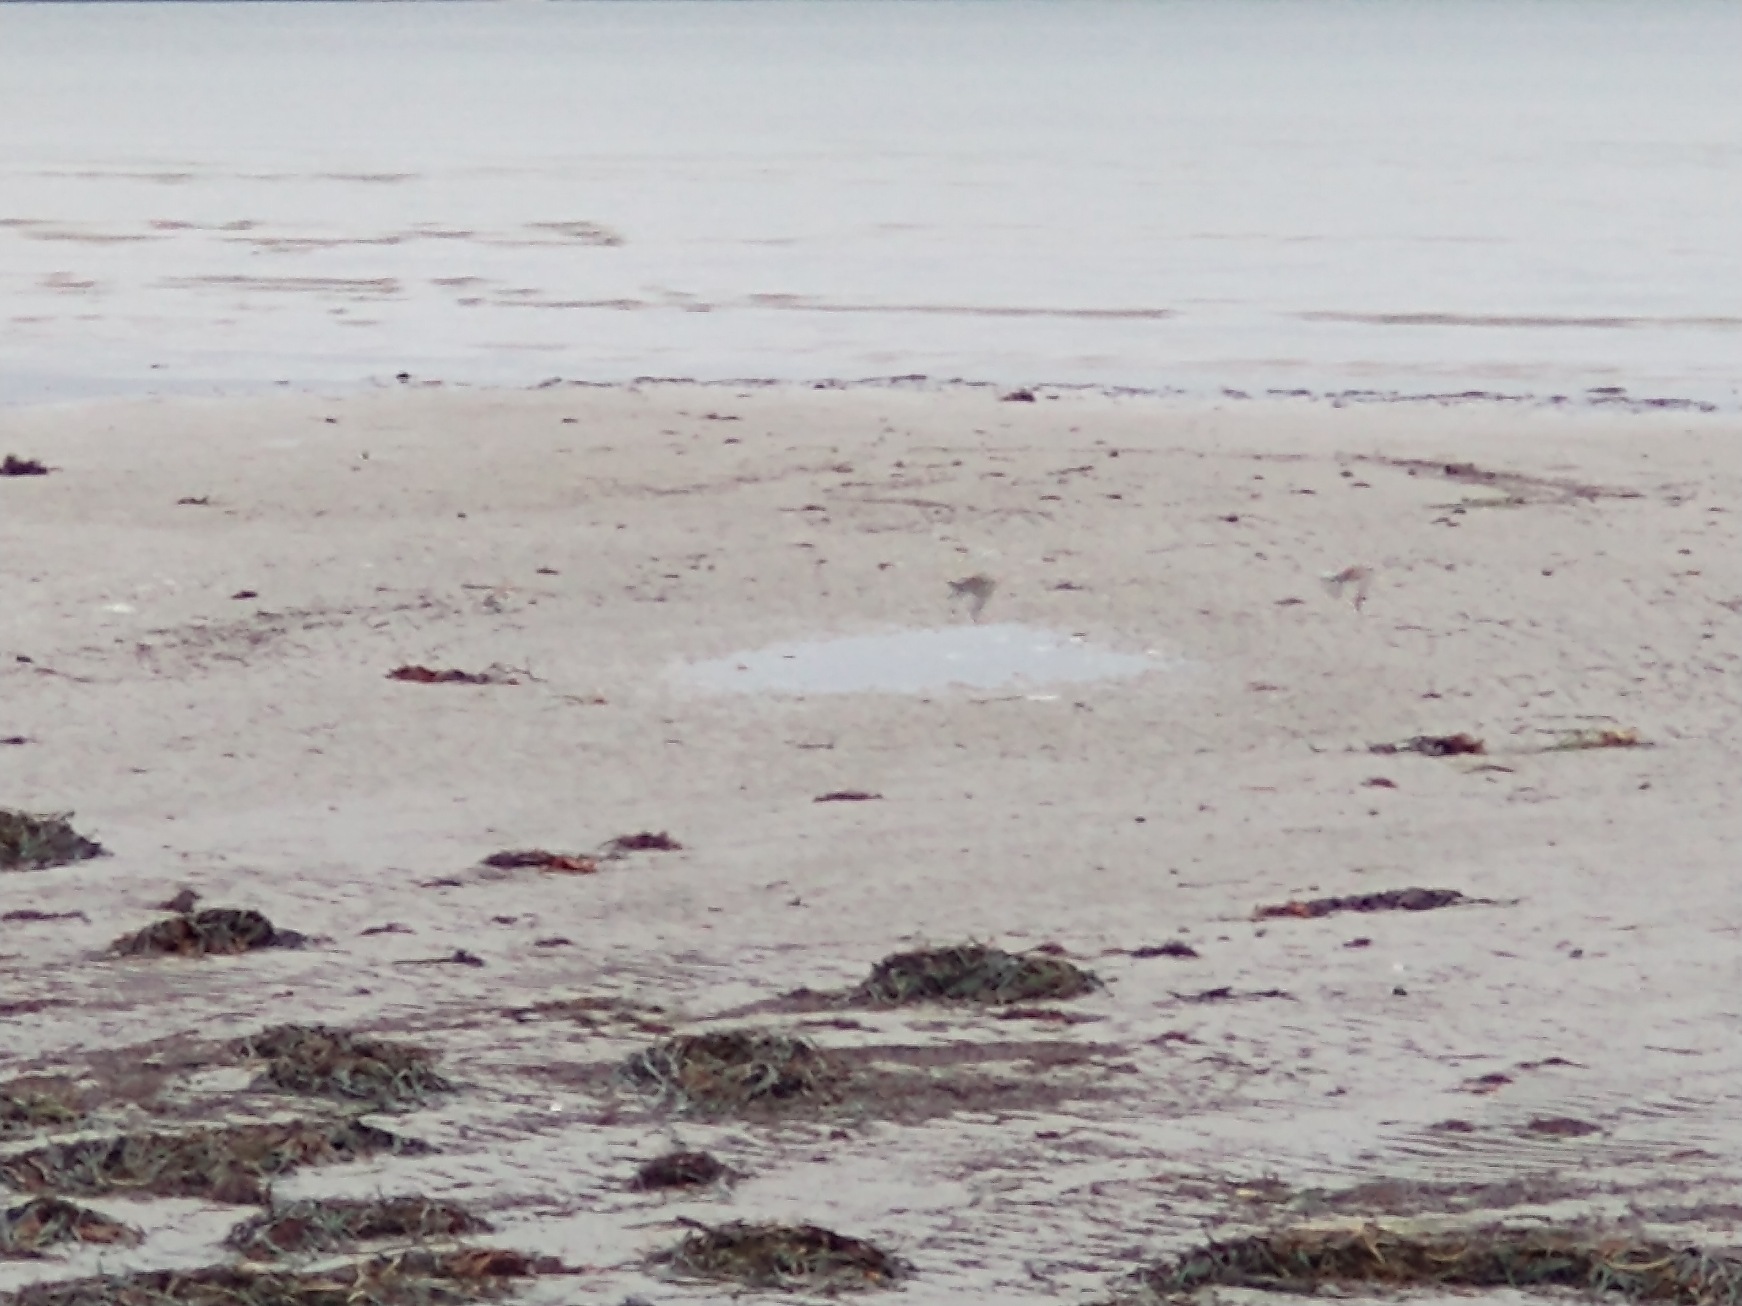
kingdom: Animalia
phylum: Chordata
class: Aves
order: Passeriformes
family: Calcariidae
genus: Plectrophenax
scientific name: Plectrophenax nivalis
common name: Snespurv
